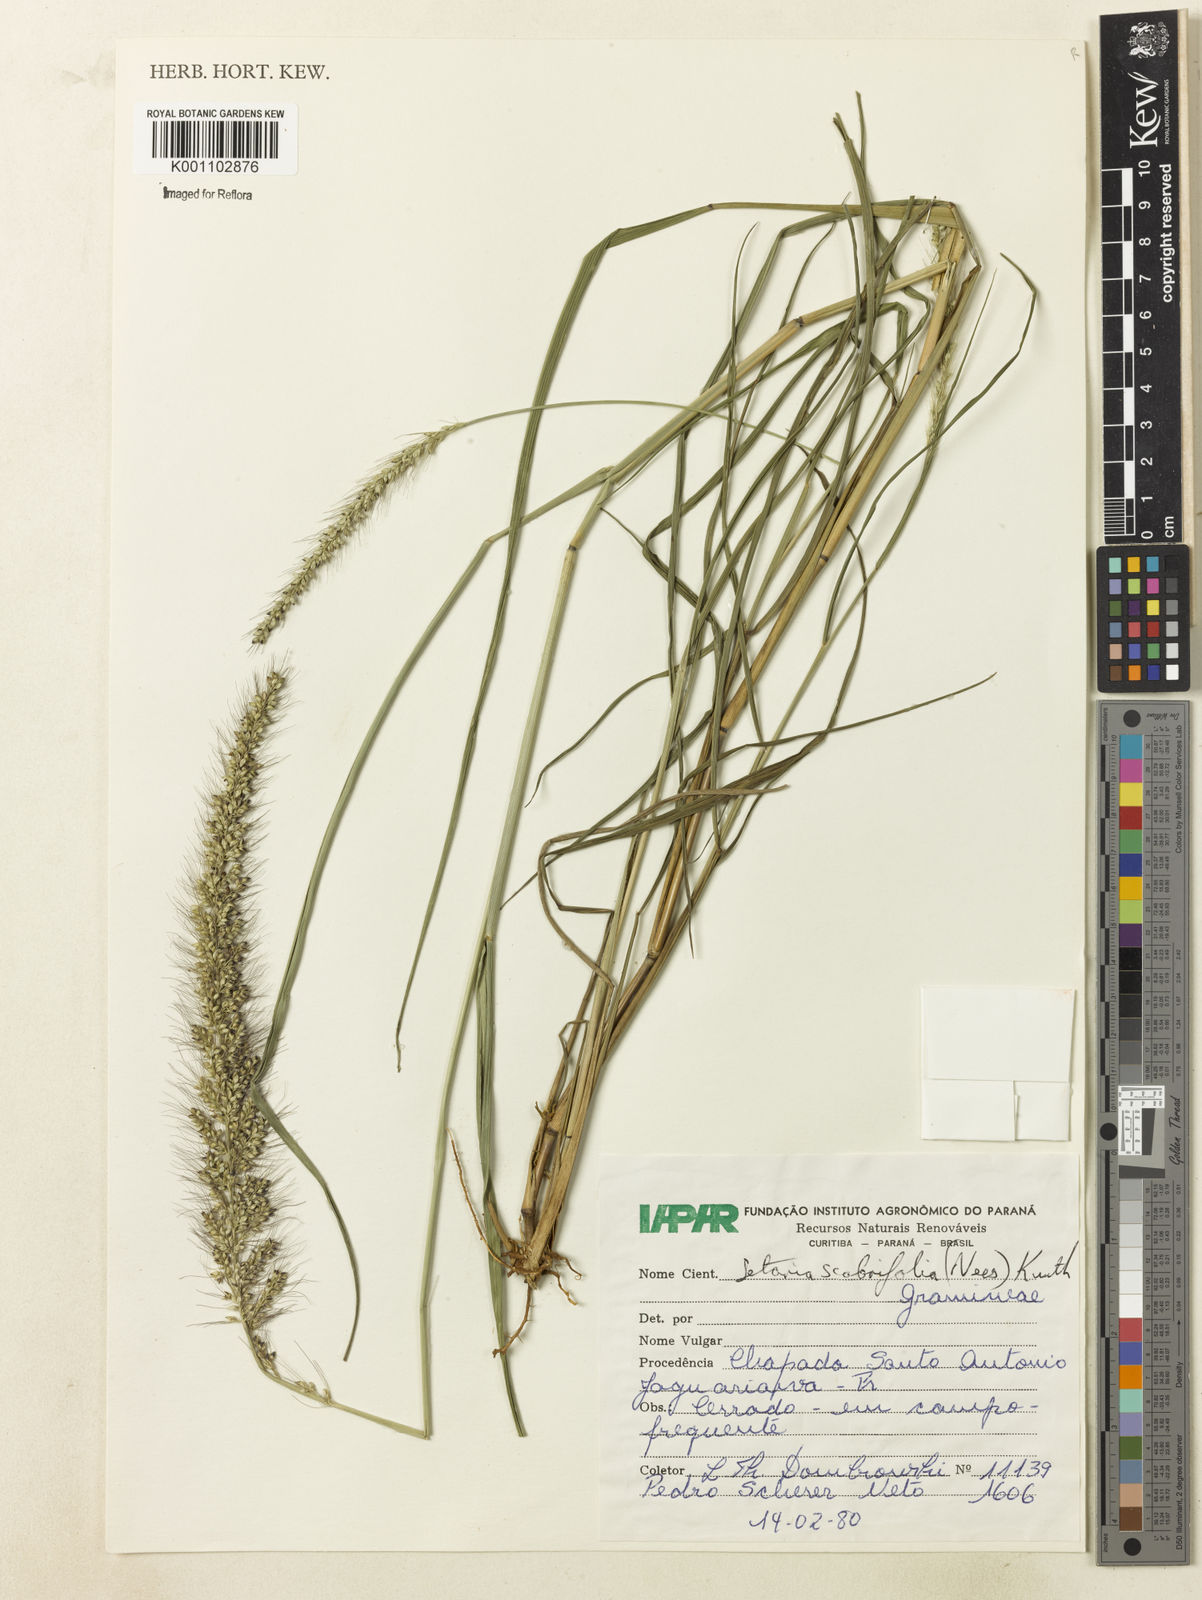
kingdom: Plantae
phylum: Tracheophyta
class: Liliopsida
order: Poales
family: Poaceae
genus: Setaria
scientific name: Setaria scabrifolia
